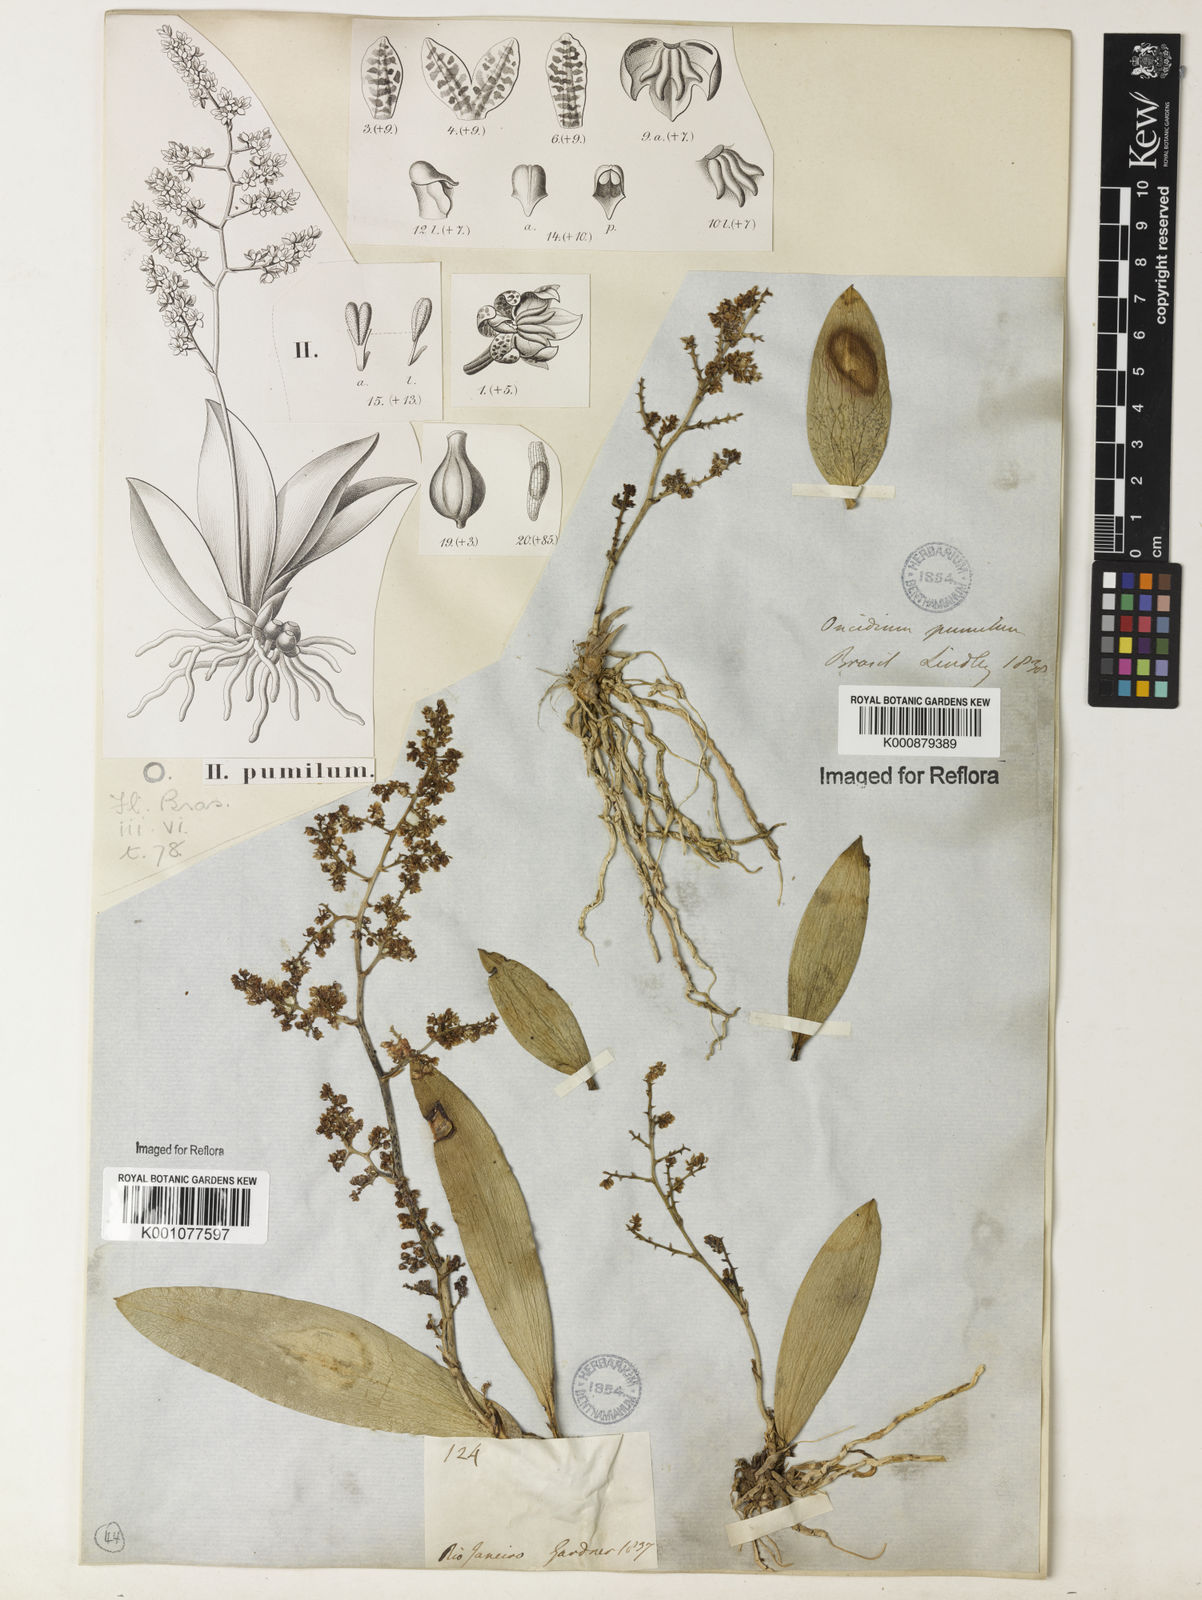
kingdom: Plantae
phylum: Tracheophyta
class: Liliopsida
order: Asparagales
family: Orchidaceae
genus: Trichocentrum
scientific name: Trichocentrum pumilum
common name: Mule-ear orchid
